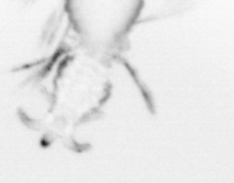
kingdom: Animalia
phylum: Annelida
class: Polychaeta
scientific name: Polychaeta
